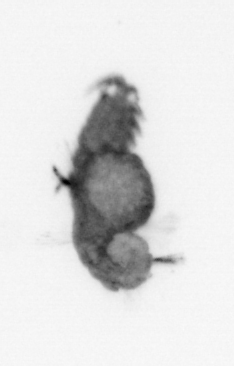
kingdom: Animalia
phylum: Annelida
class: Polychaeta
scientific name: Polychaeta
